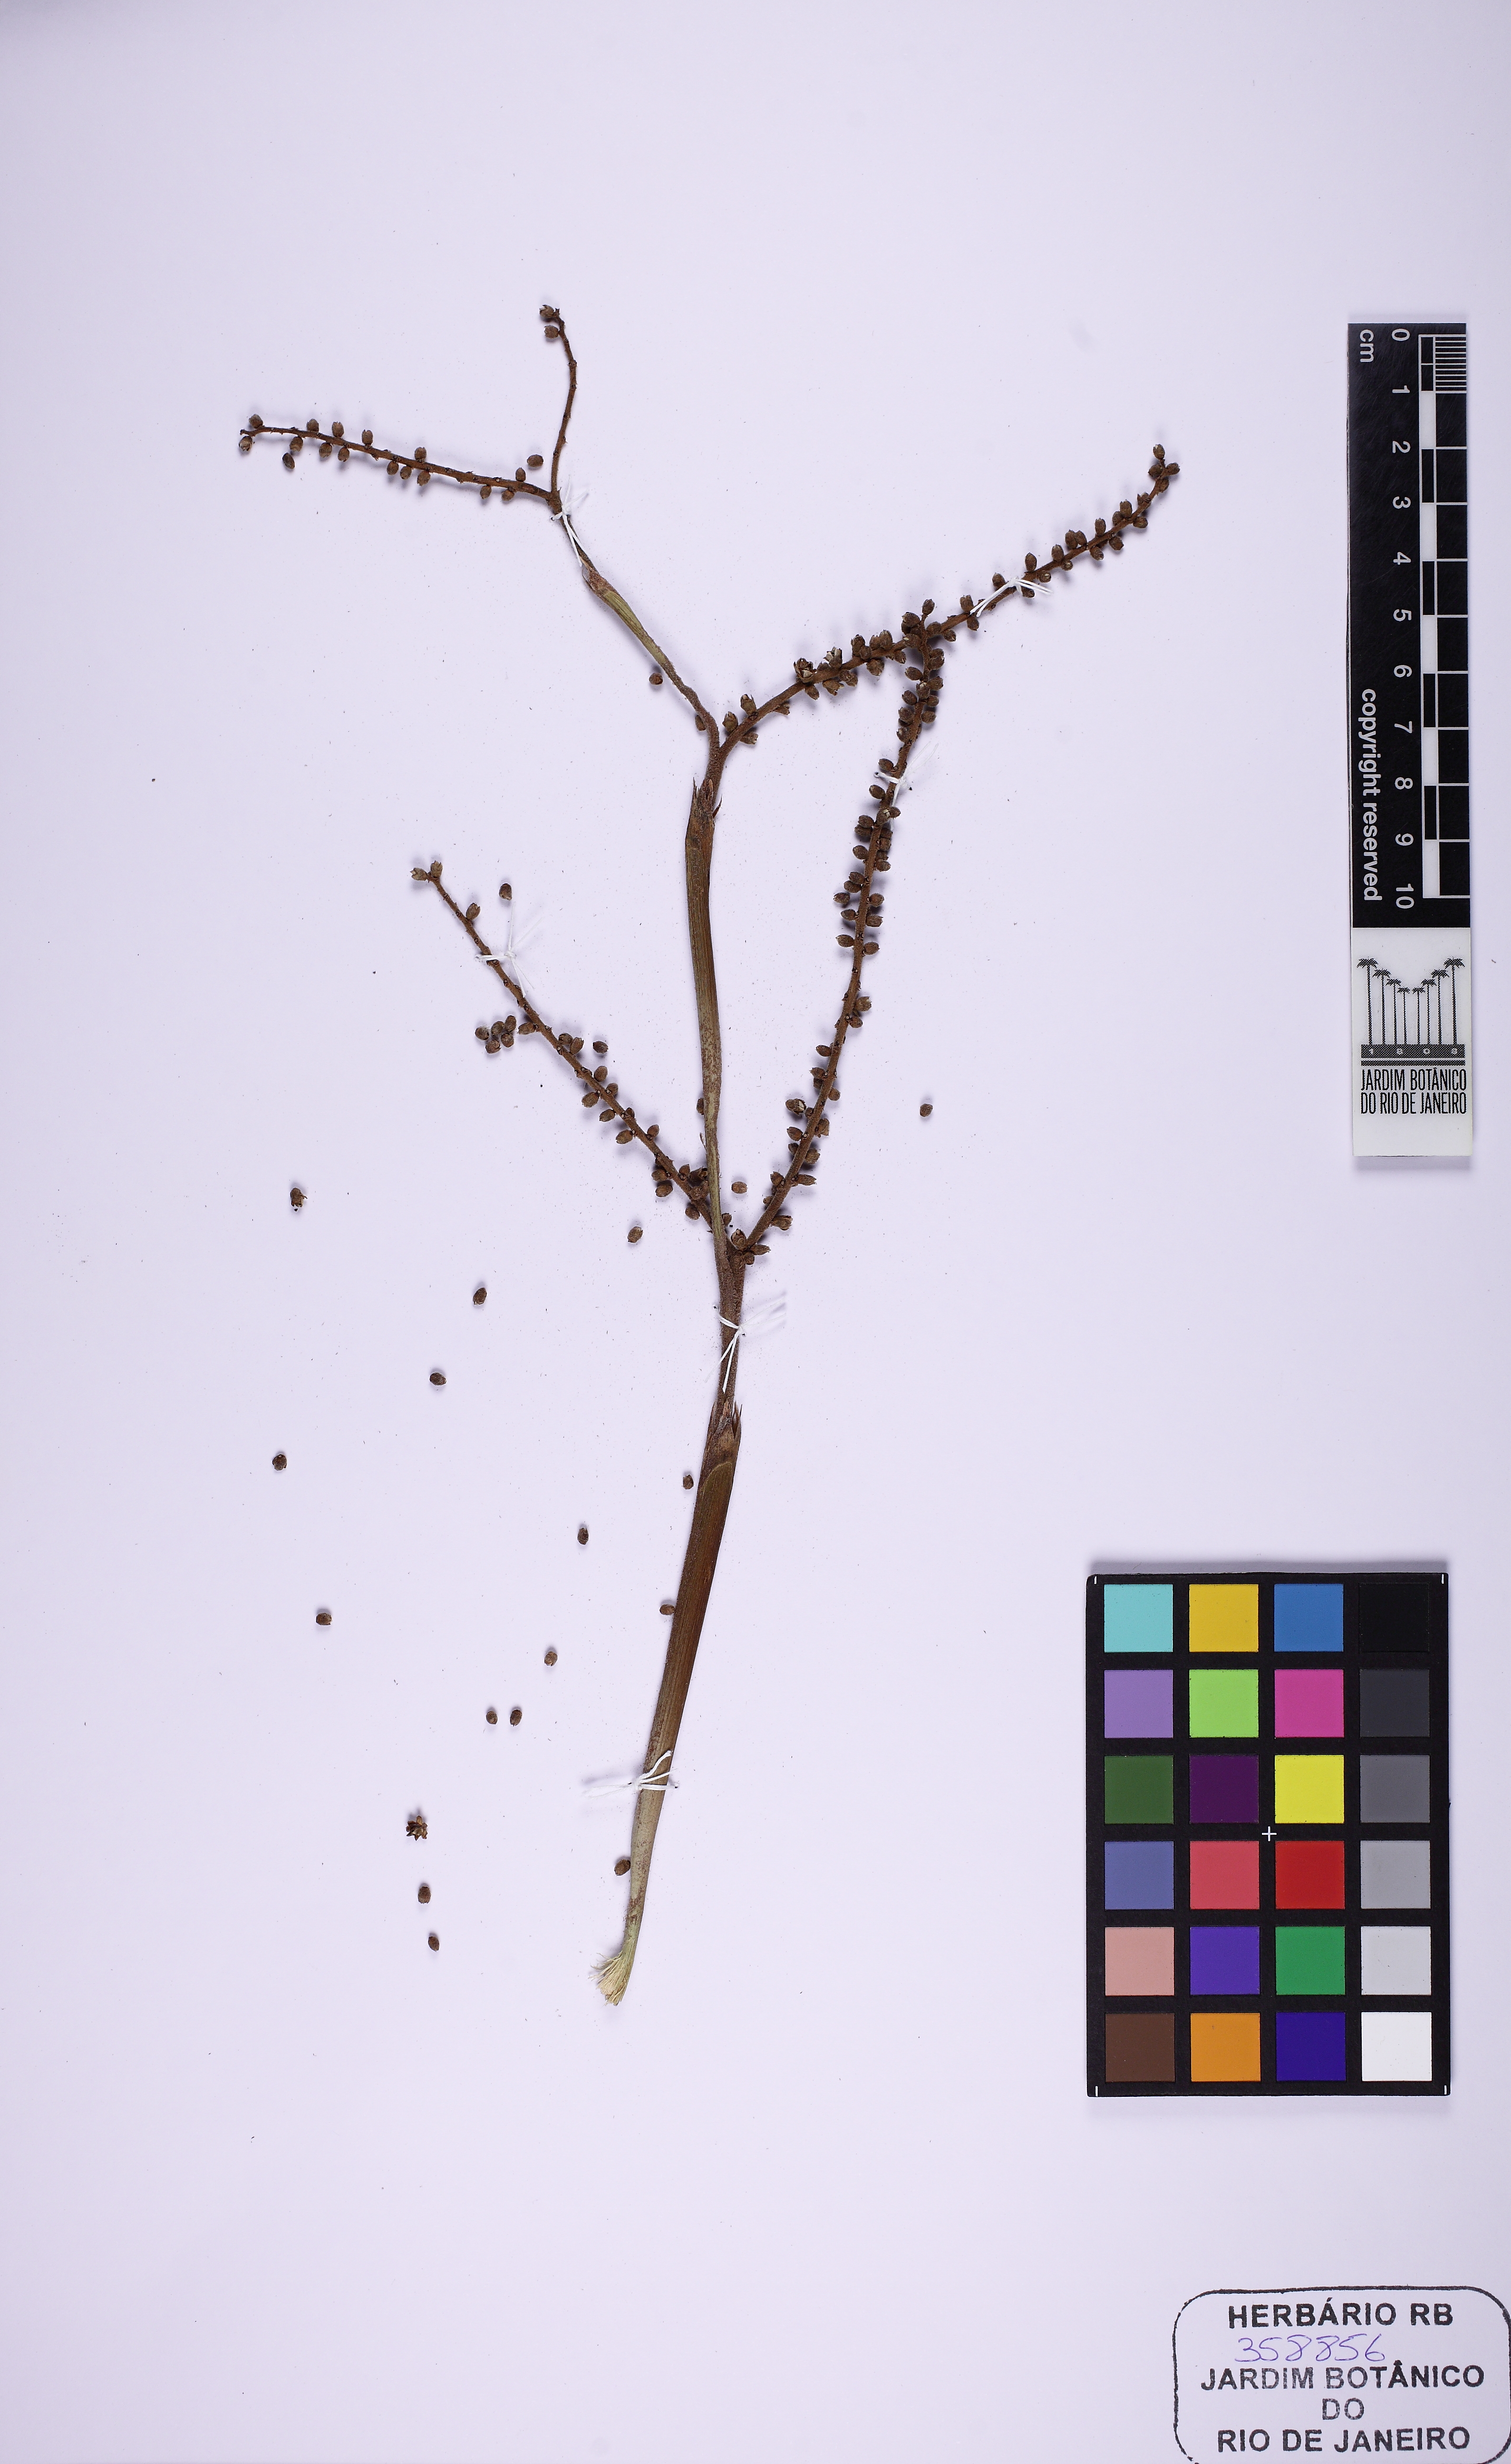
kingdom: Plantae
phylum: Tracheophyta
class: Liliopsida
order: Arecales
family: Arecaceae
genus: Licuala
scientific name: Licuala spinosa
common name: Mangrove fan palm
